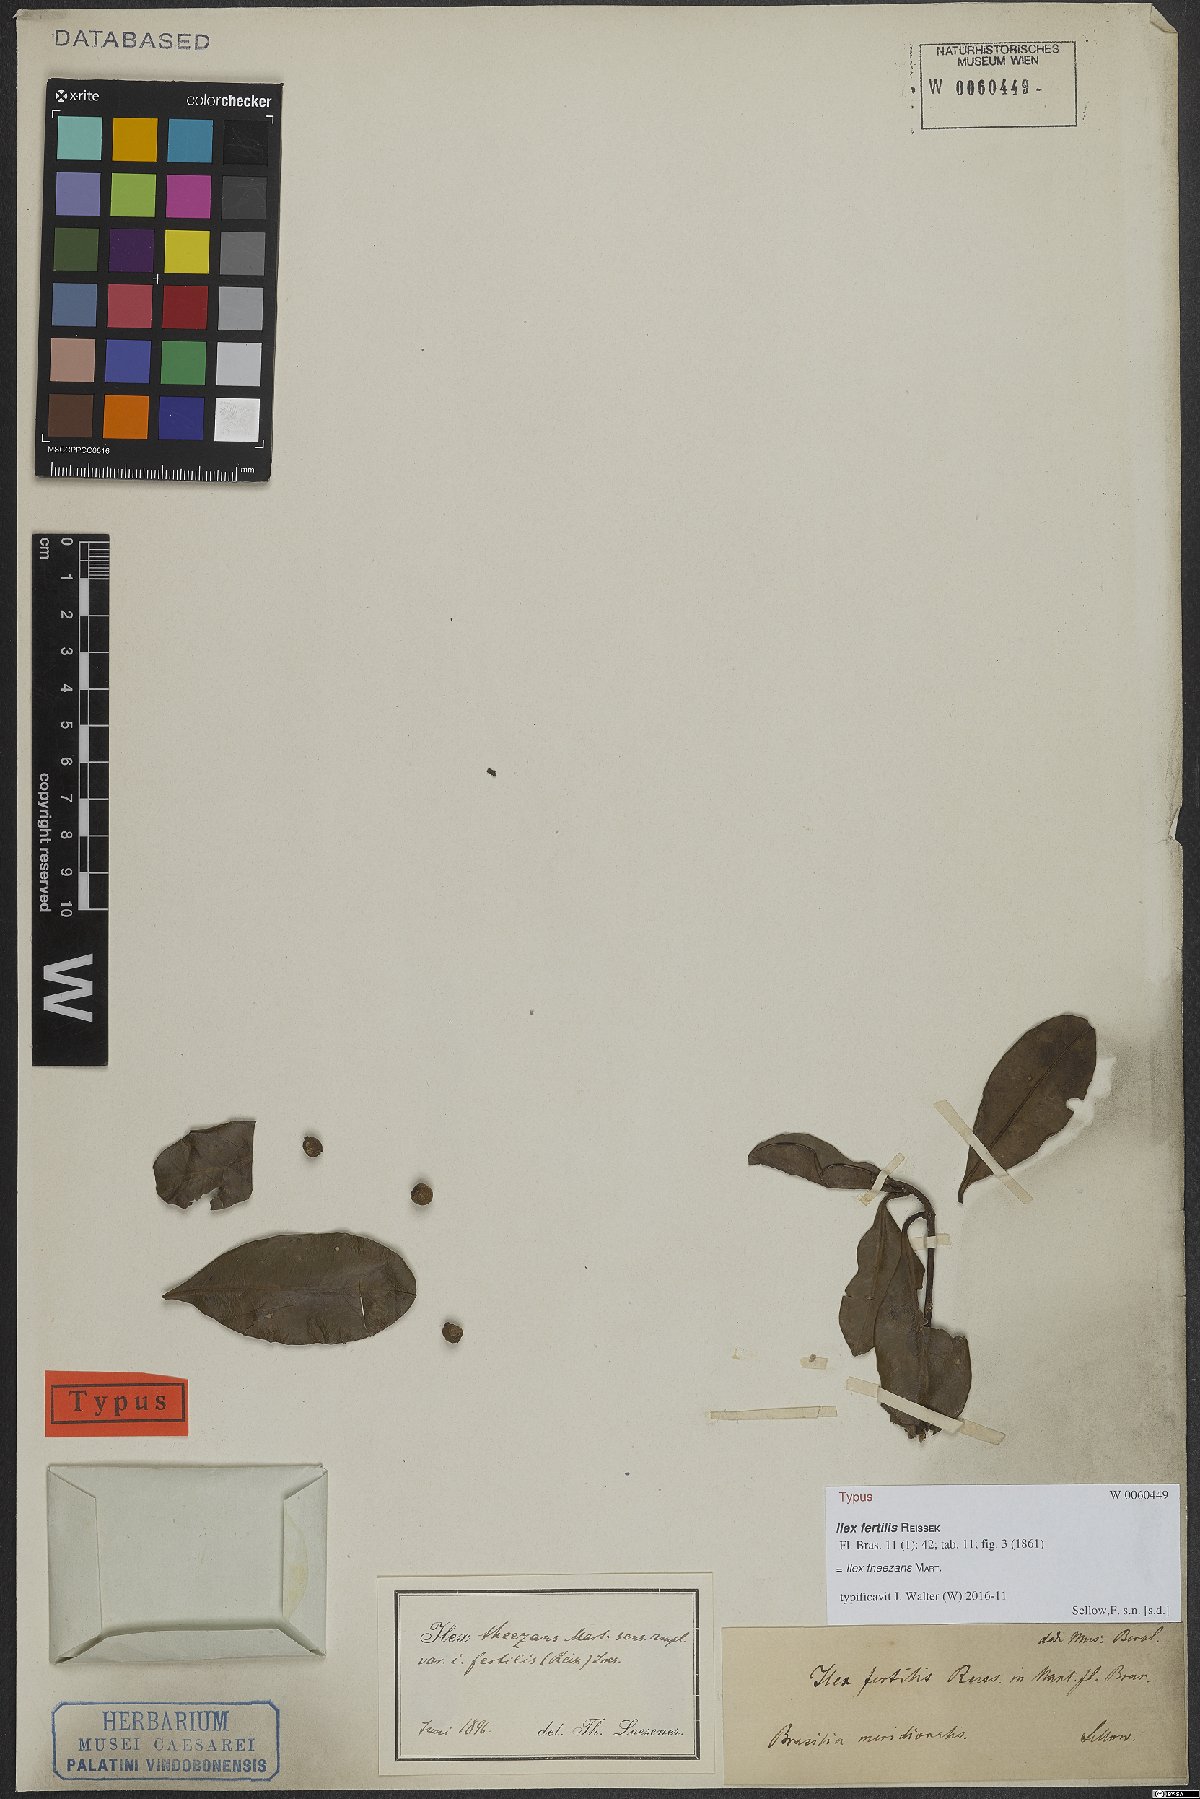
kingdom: Plantae
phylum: Tracheophyta
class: Magnoliopsida
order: Aquifoliales
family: Aquifoliaceae
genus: Ilex
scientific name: Ilex theezans
